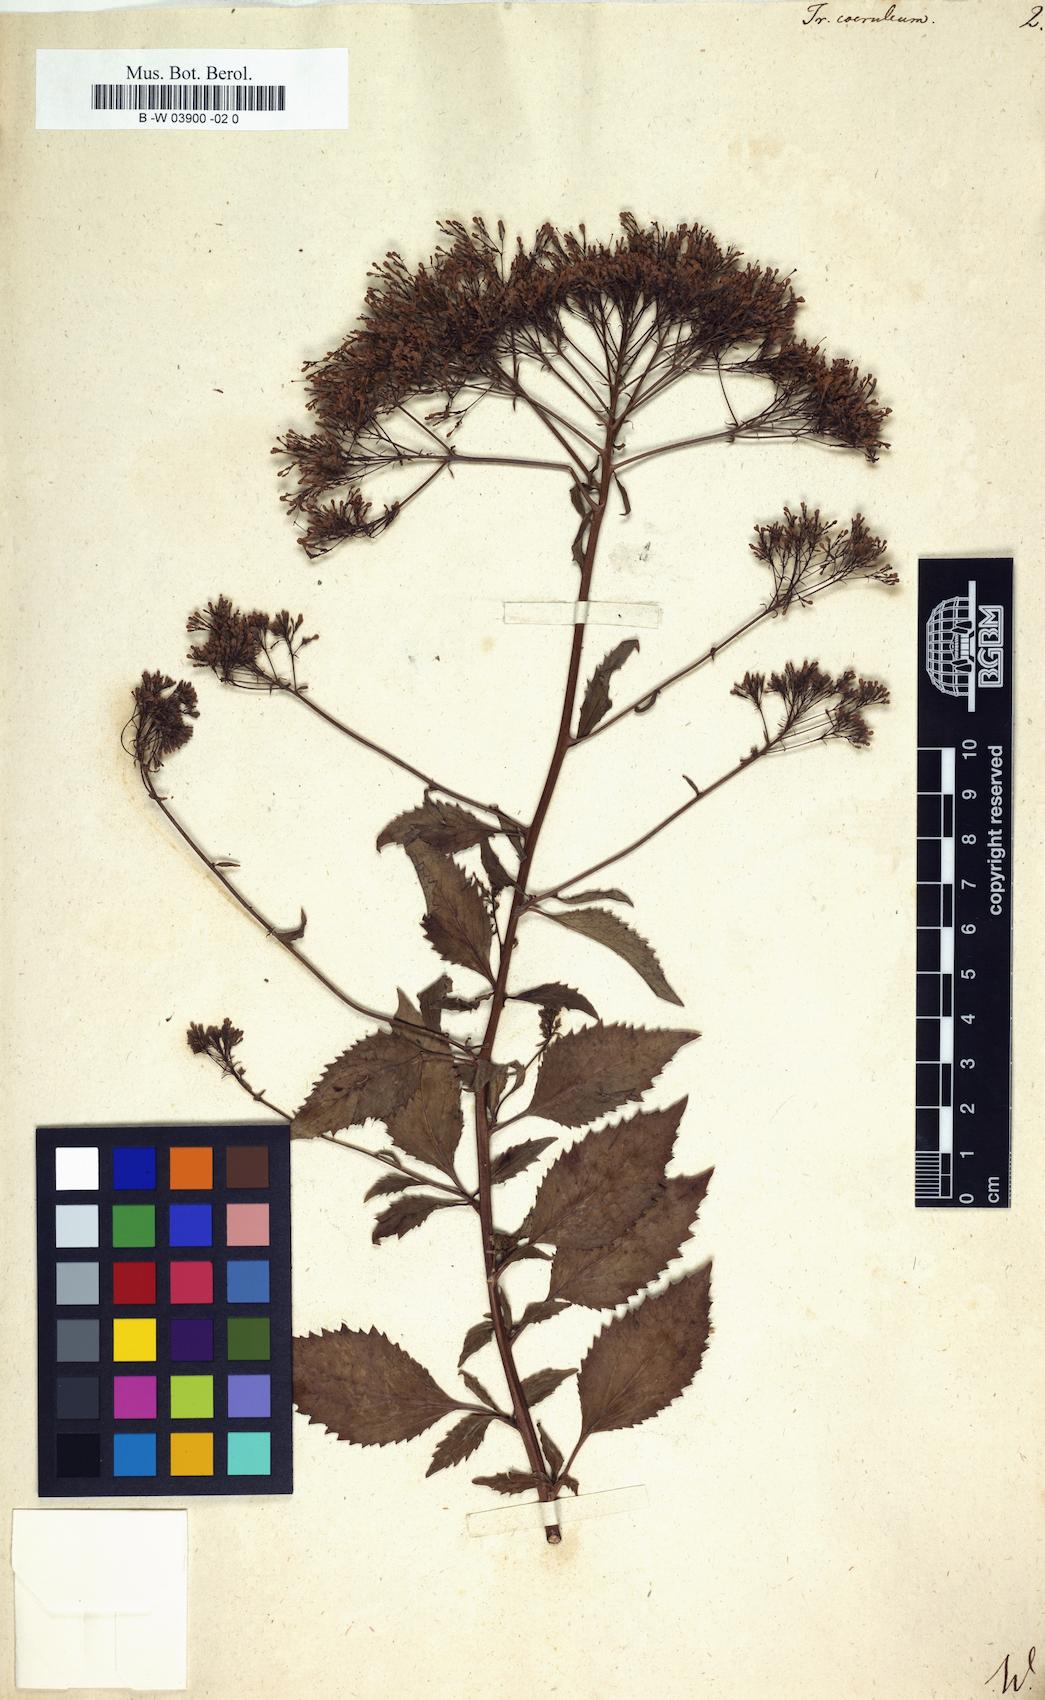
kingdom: Plantae
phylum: Tracheophyta
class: Magnoliopsida
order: Asterales
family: Campanulaceae
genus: Trachelium
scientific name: Trachelium caeruleum
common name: Throatwort
